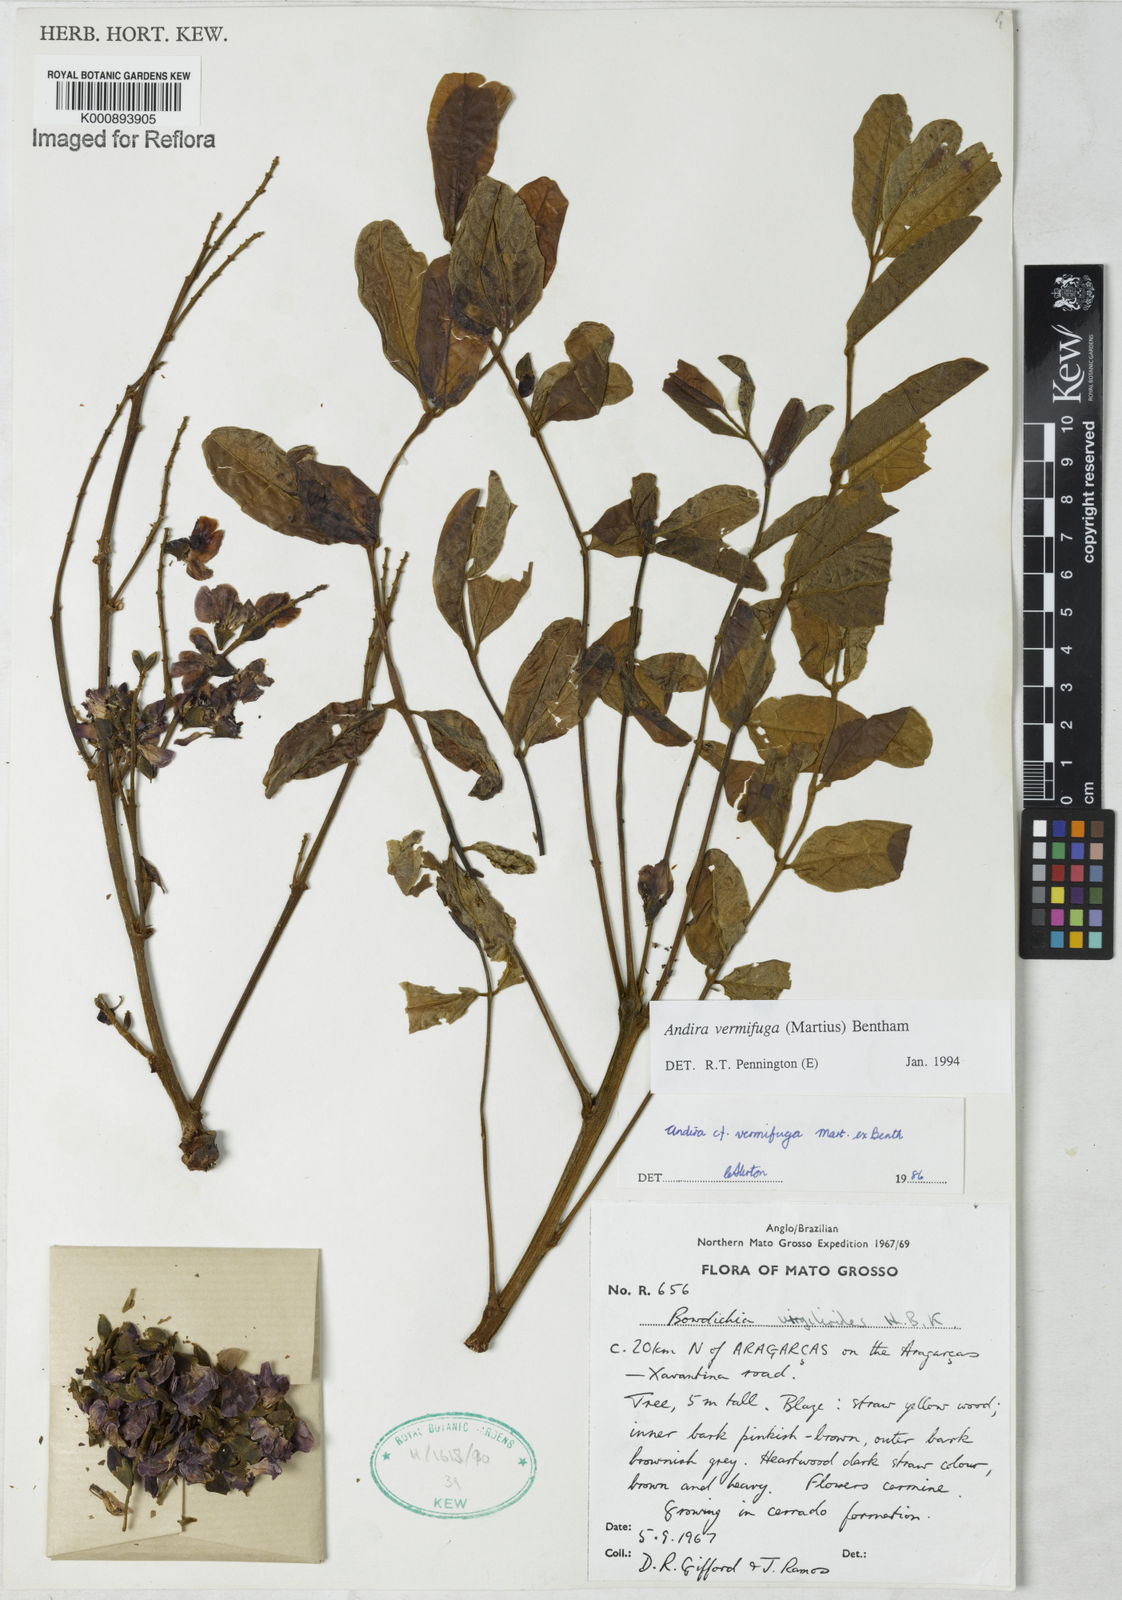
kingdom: Plantae
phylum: Tracheophyta
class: Magnoliopsida
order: Fabales
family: Fabaceae
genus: Andira
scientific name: Andira vermifuga
